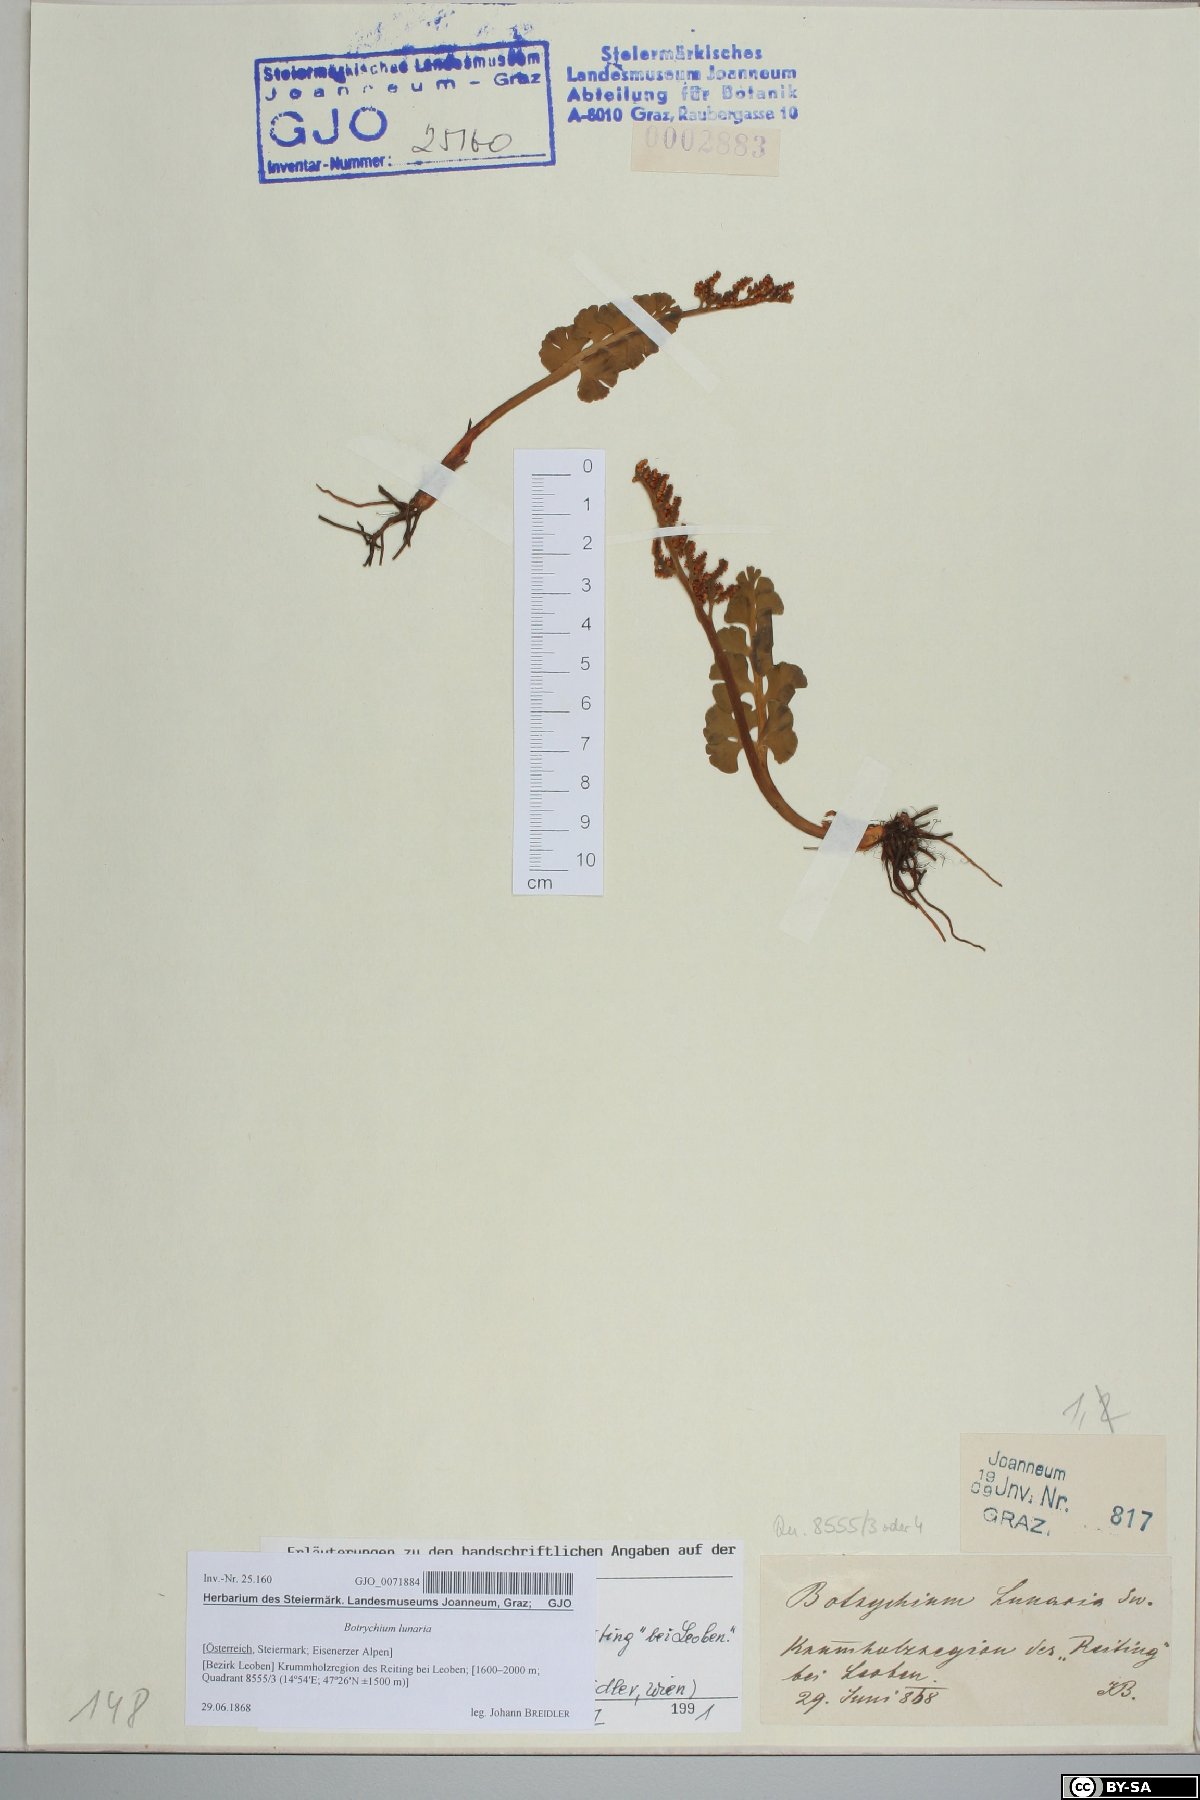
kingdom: Plantae
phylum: Tracheophyta
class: Polypodiopsida
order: Ophioglossales
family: Ophioglossaceae
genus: Botrychium
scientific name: Botrychium lunaria
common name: Moonwort
